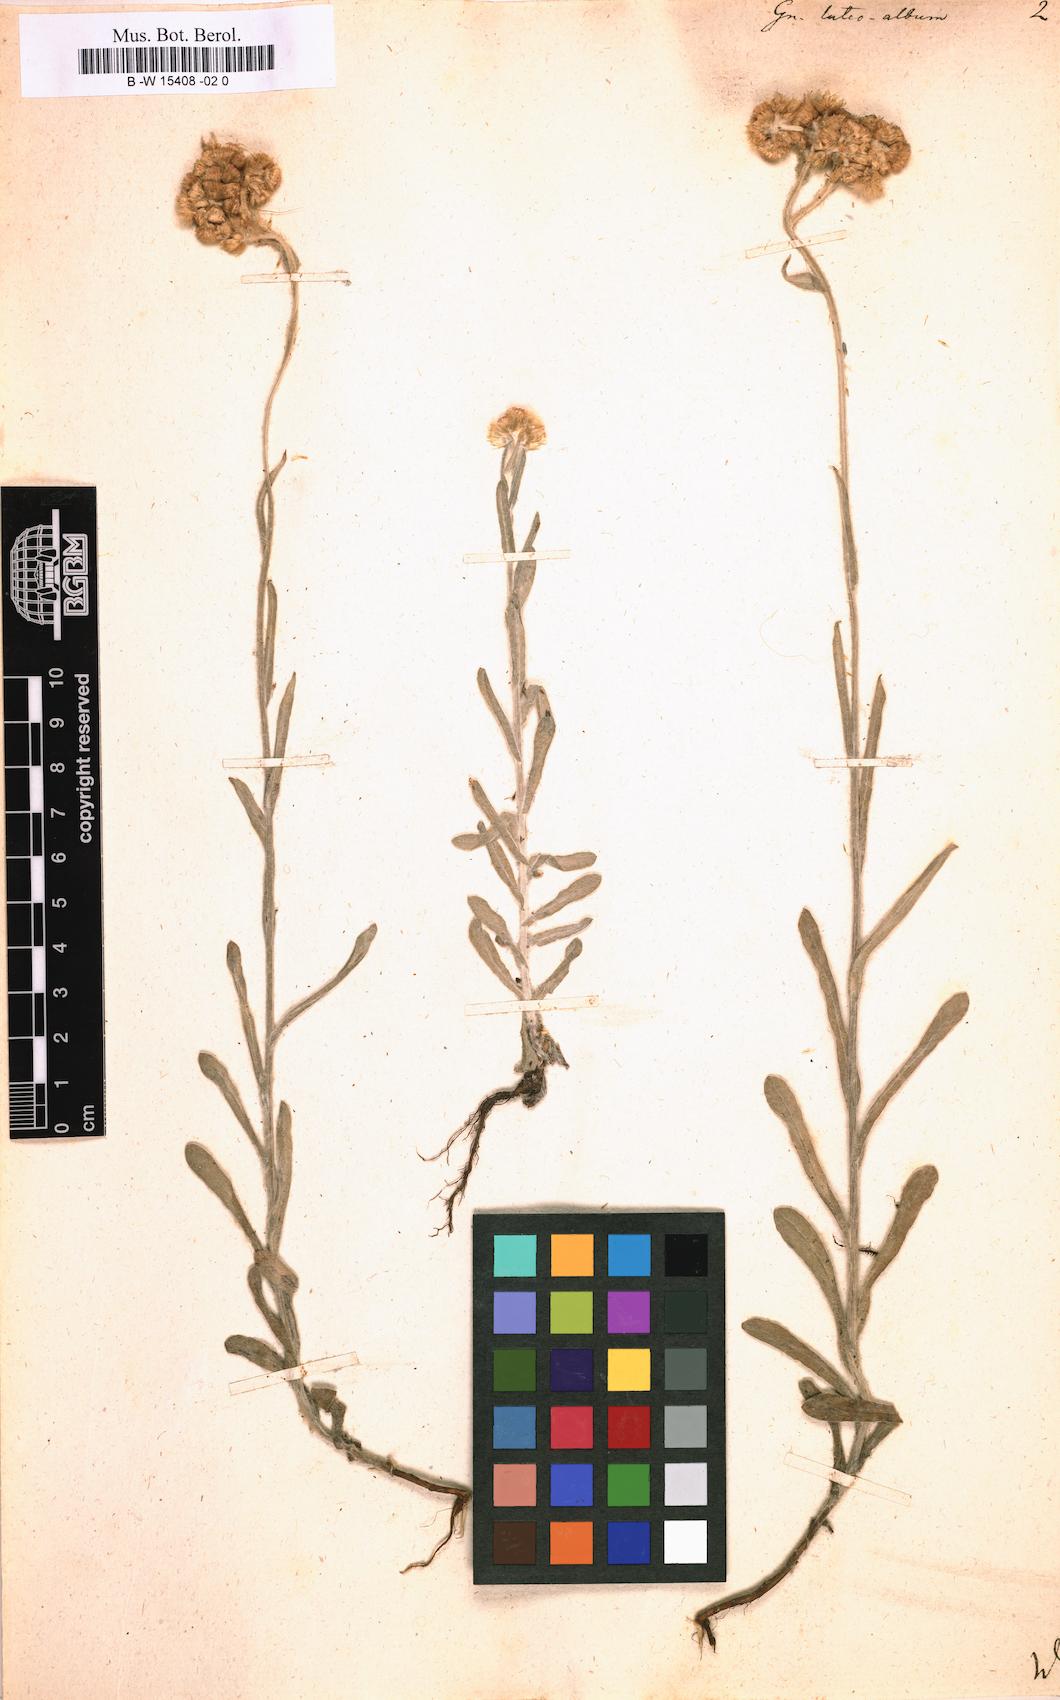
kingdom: Plantae
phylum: Tracheophyta
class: Magnoliopsida
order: Asterales
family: Asteraceae
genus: Helichrysum
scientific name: Helichrysum luteoalbum
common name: Daisy
